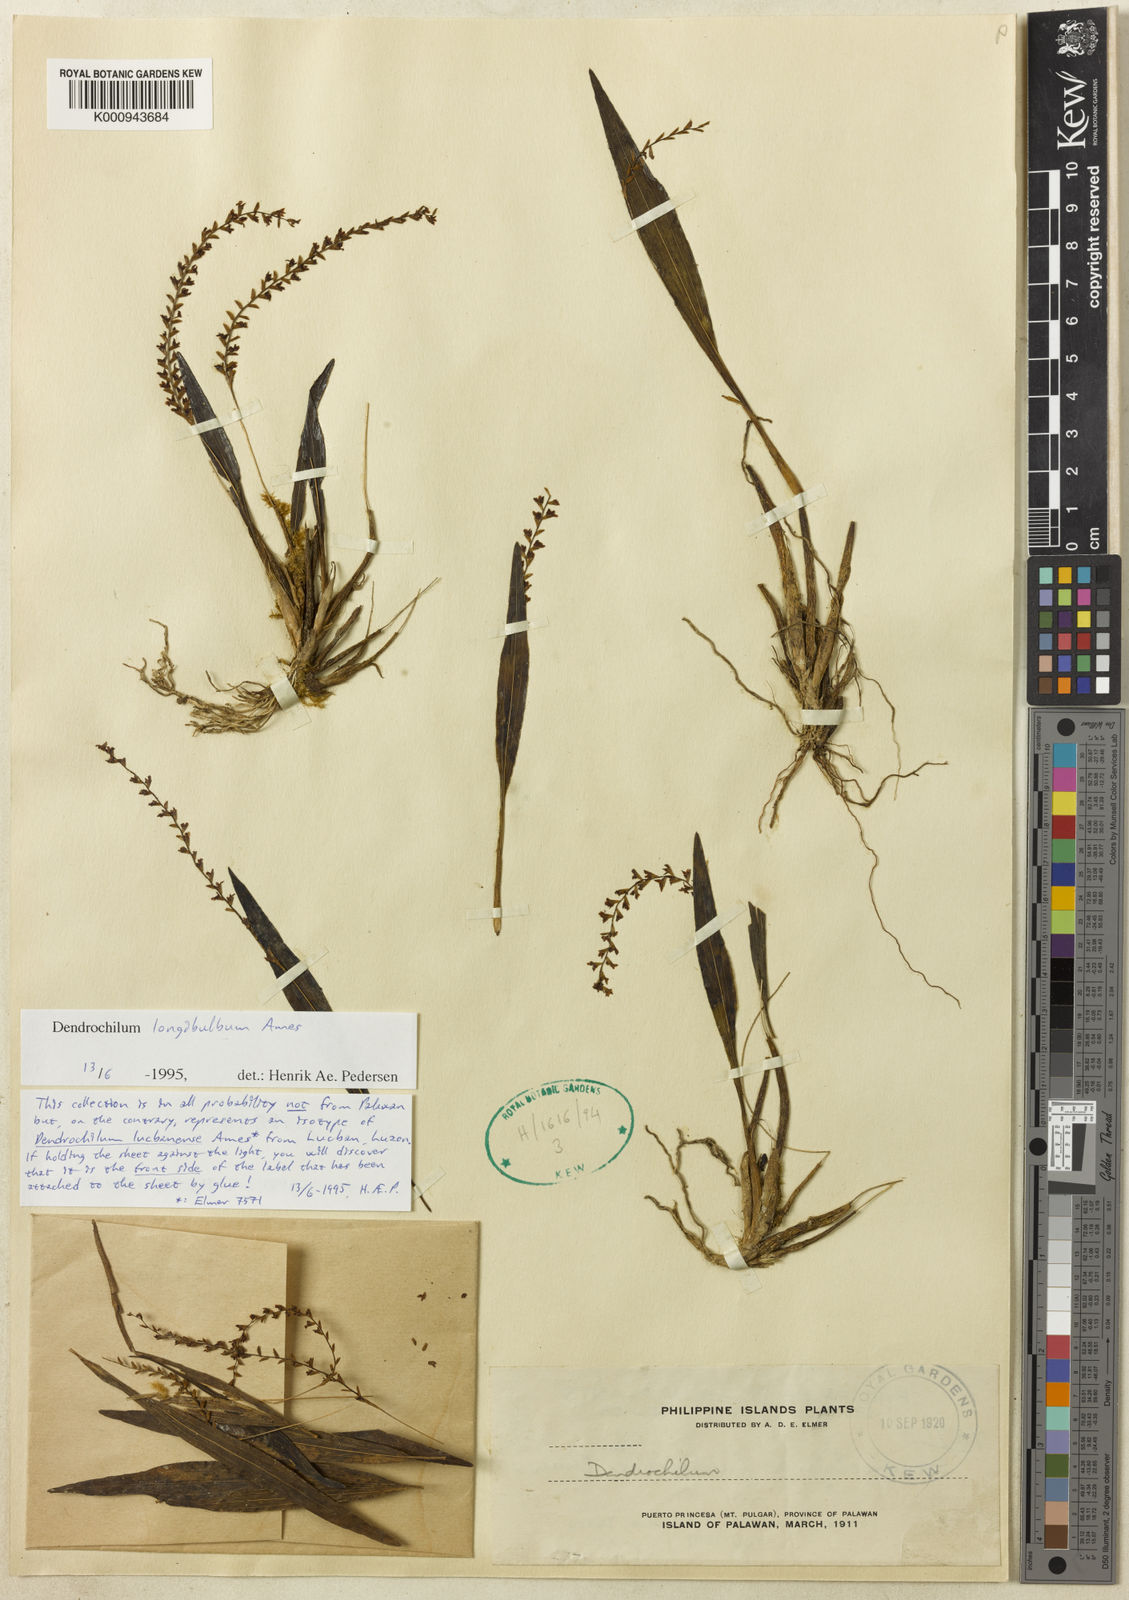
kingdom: Plantae
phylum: Tracheophyta
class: Liliopsida
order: Asparagales
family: Orchidaceae
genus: Coelogyne
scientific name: Coelogyne lucbanensis
